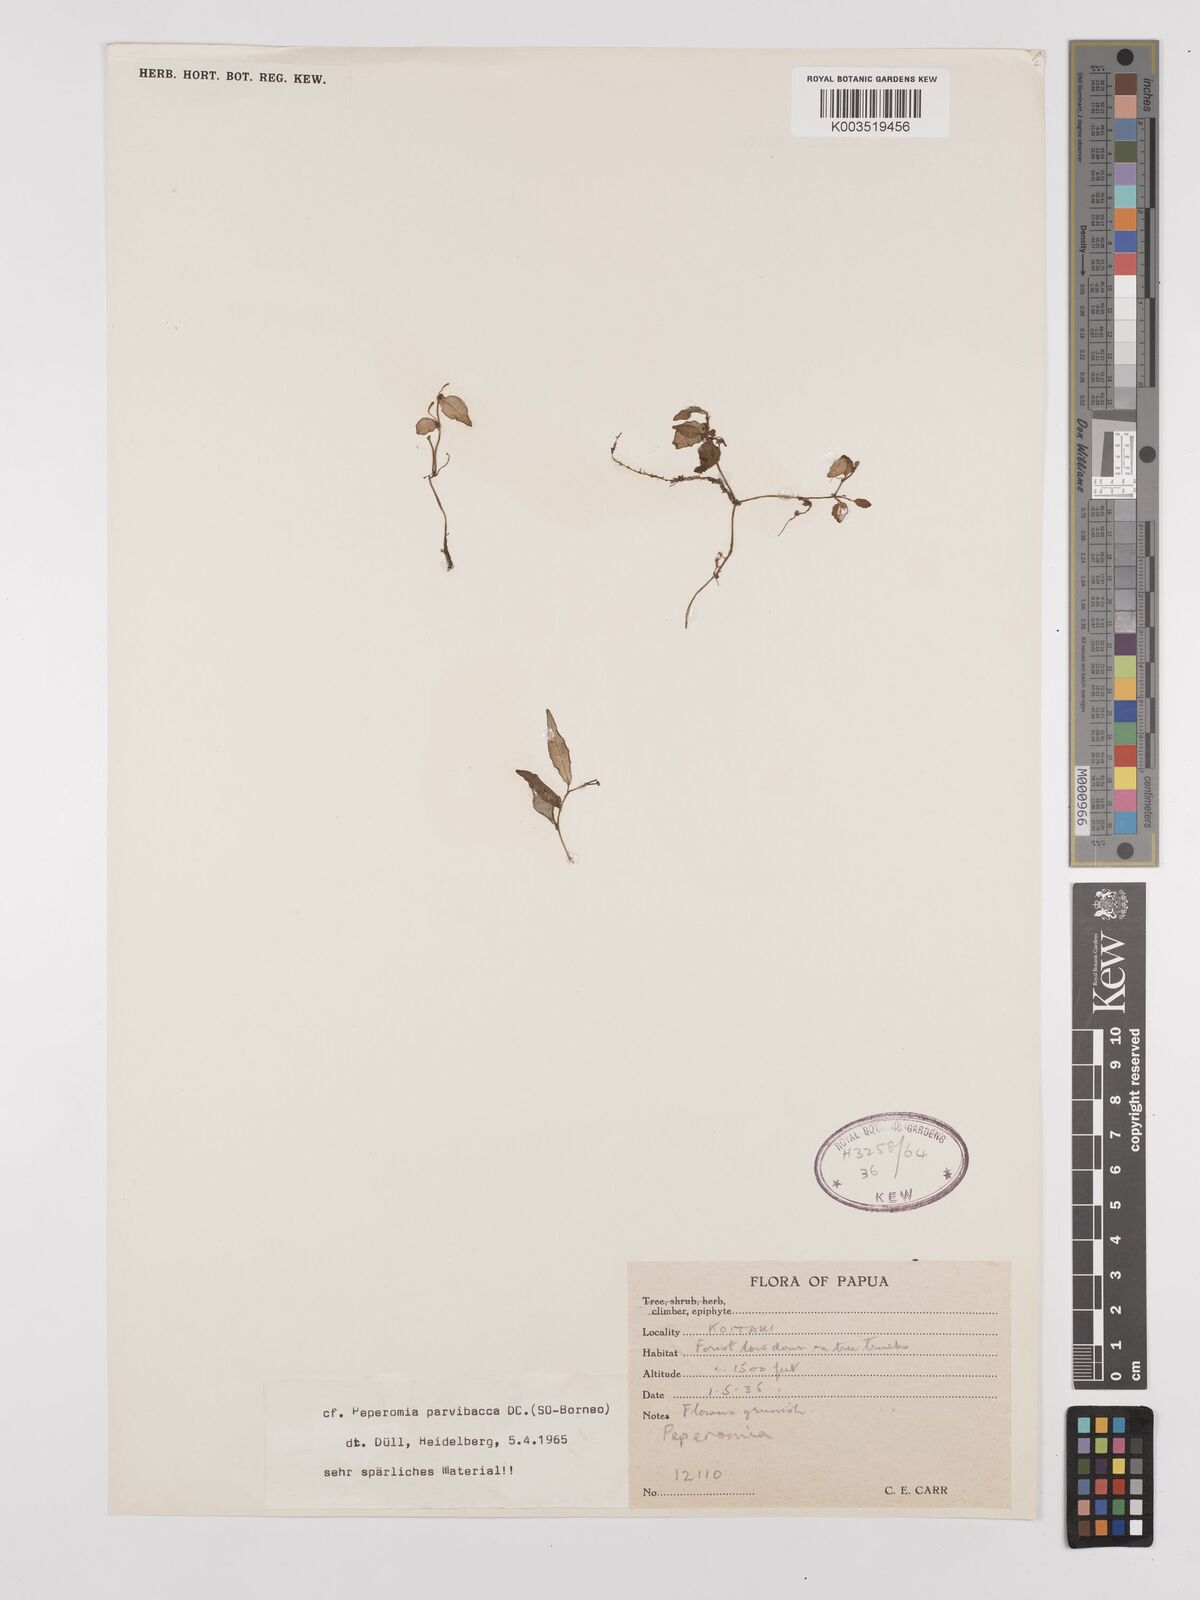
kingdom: Plantae
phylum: Tracheophyta
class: Magnoliopsida
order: Piperales
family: Piperaceae
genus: Peperomia
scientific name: Peperomia parvibacca
